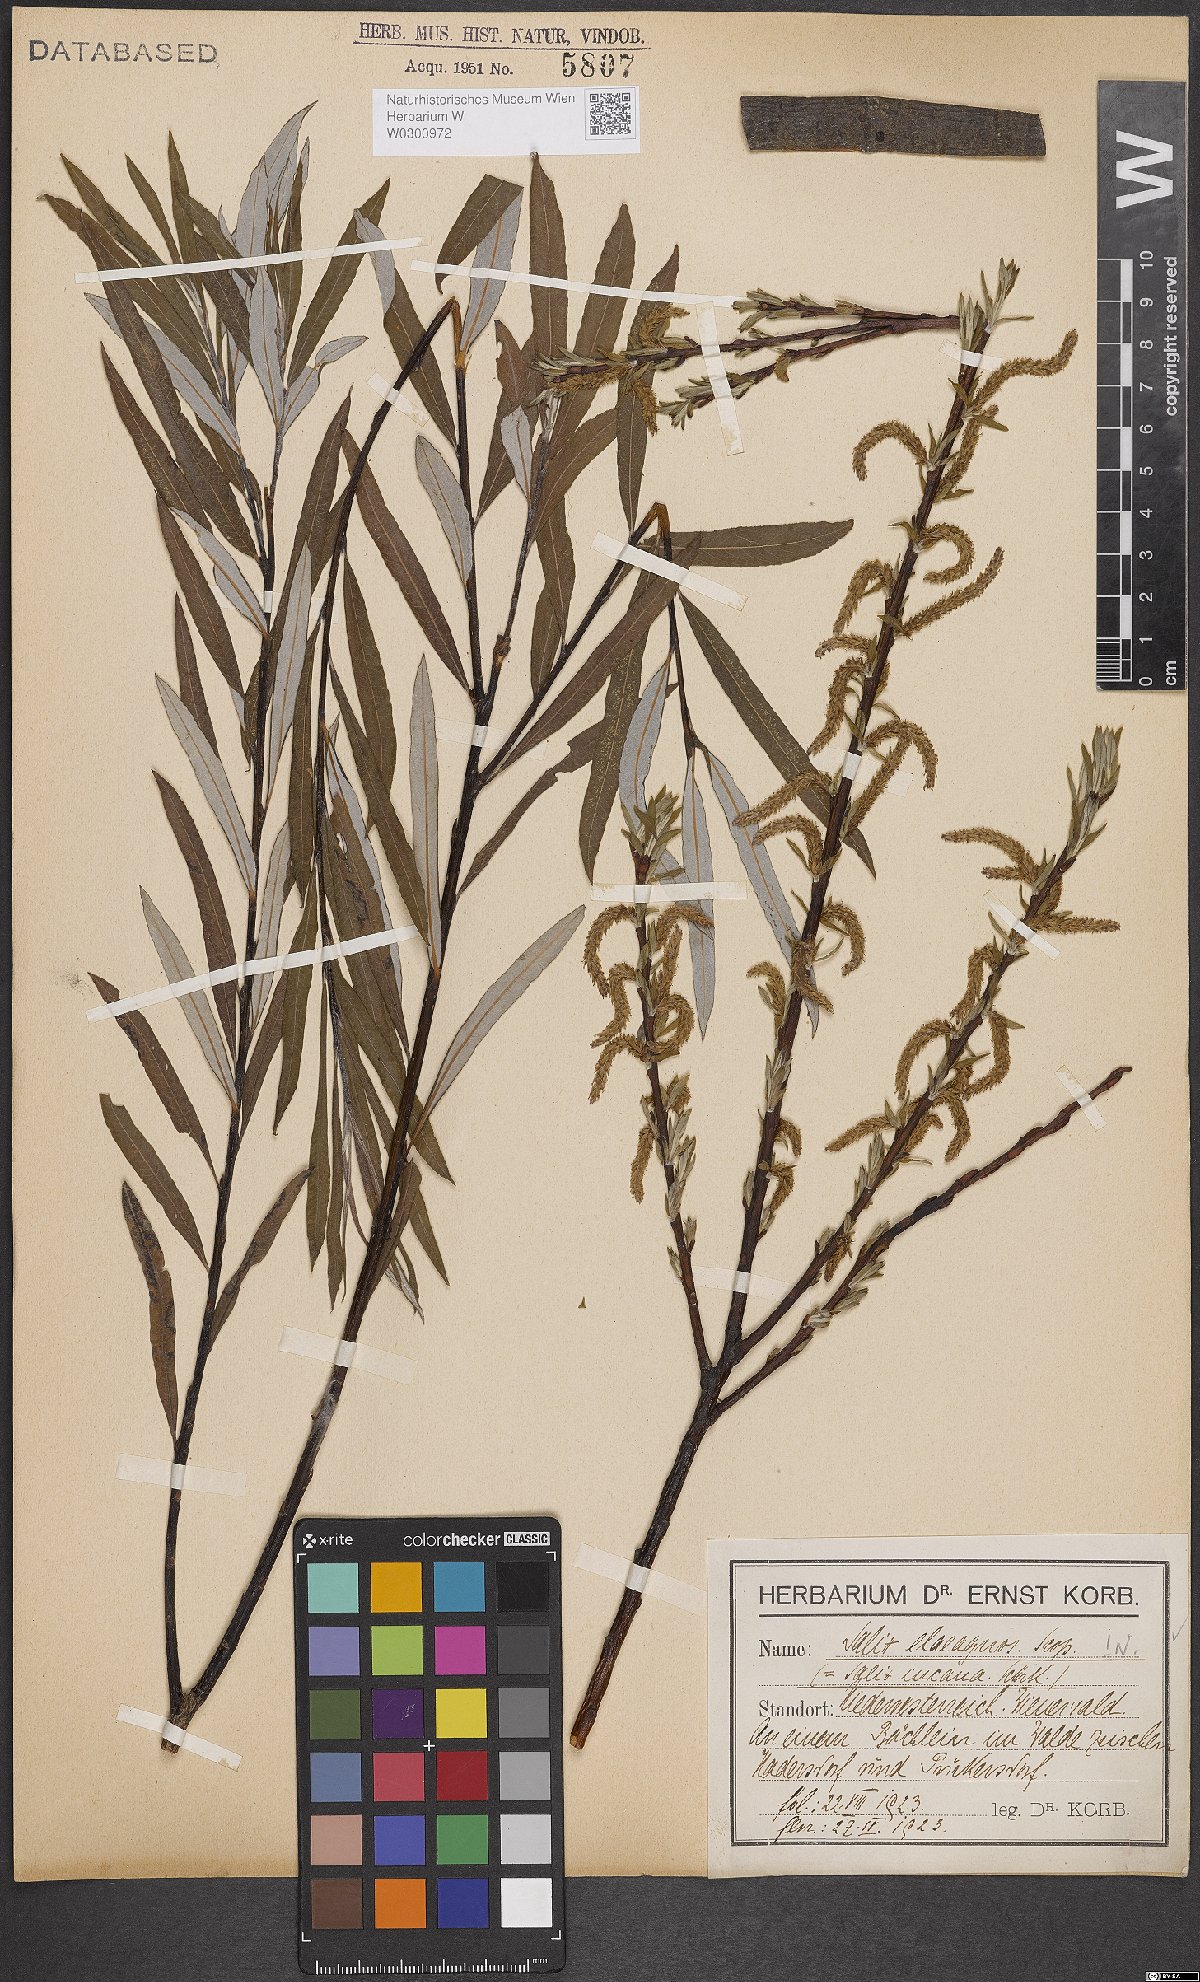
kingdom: Plantae
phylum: Tracheophyta
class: Magnoliopsida
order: Malpighiales
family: Salicaceae
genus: Salix
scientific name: Salix eleagnos
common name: Elaeagnus willow
